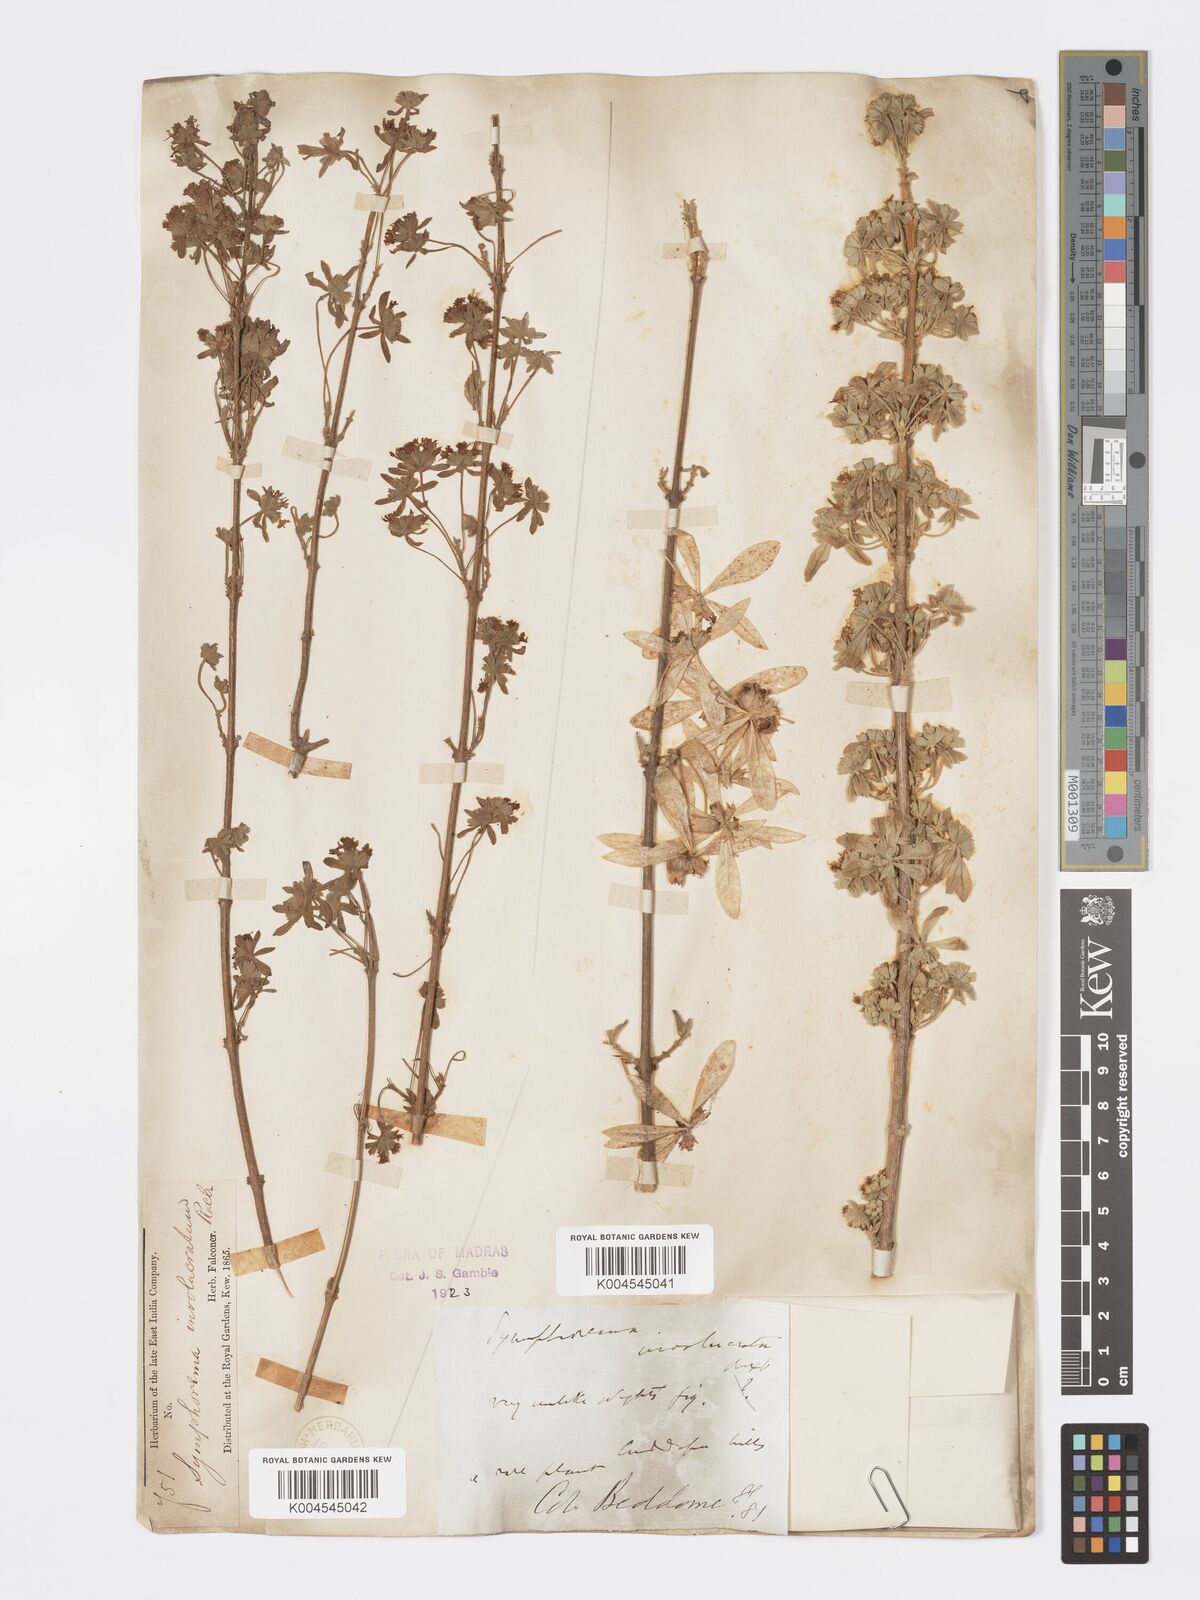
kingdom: Plantae
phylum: Tracheophyta
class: Magnoliopsida
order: Lamiales
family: Lamiaceae
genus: Symphorema
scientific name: Symphorema involucratum
